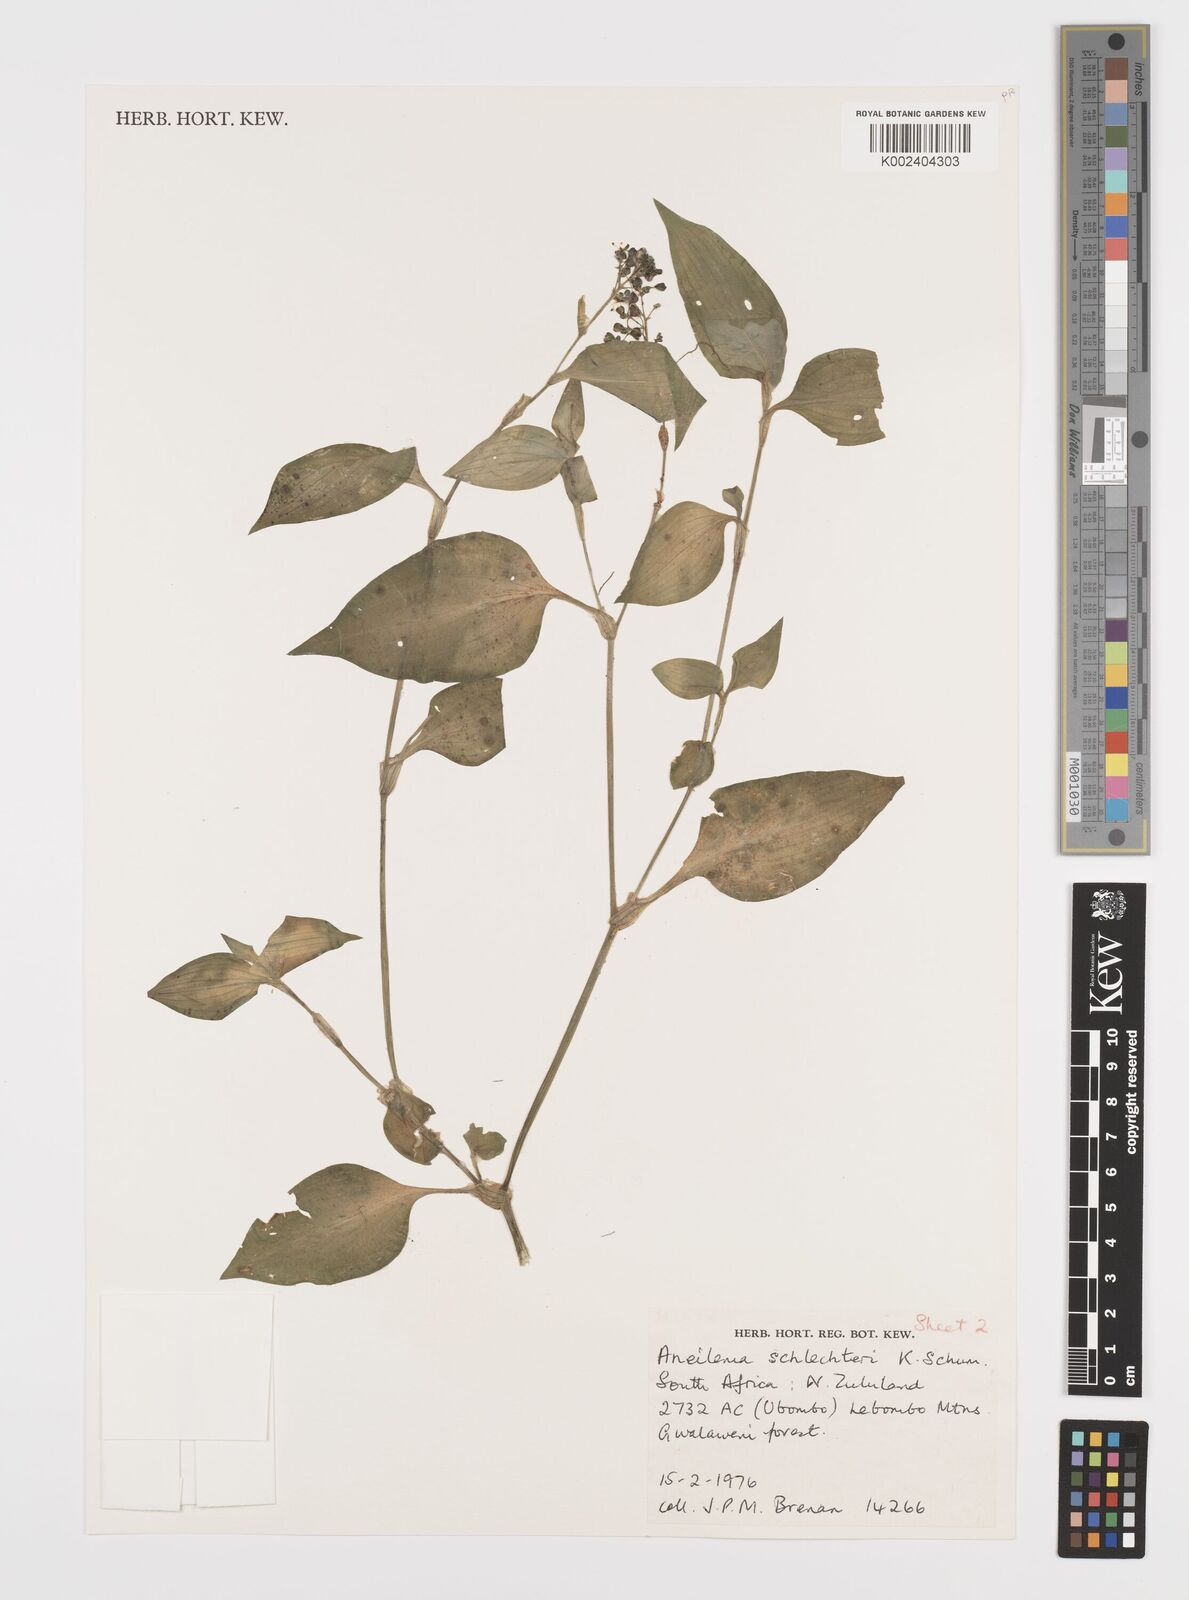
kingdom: Plantae
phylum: Tracheophyta
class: Liliopsida
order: Commelinales
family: Commelinaceae
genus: Aneilema
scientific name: Aneilema schlechteri
